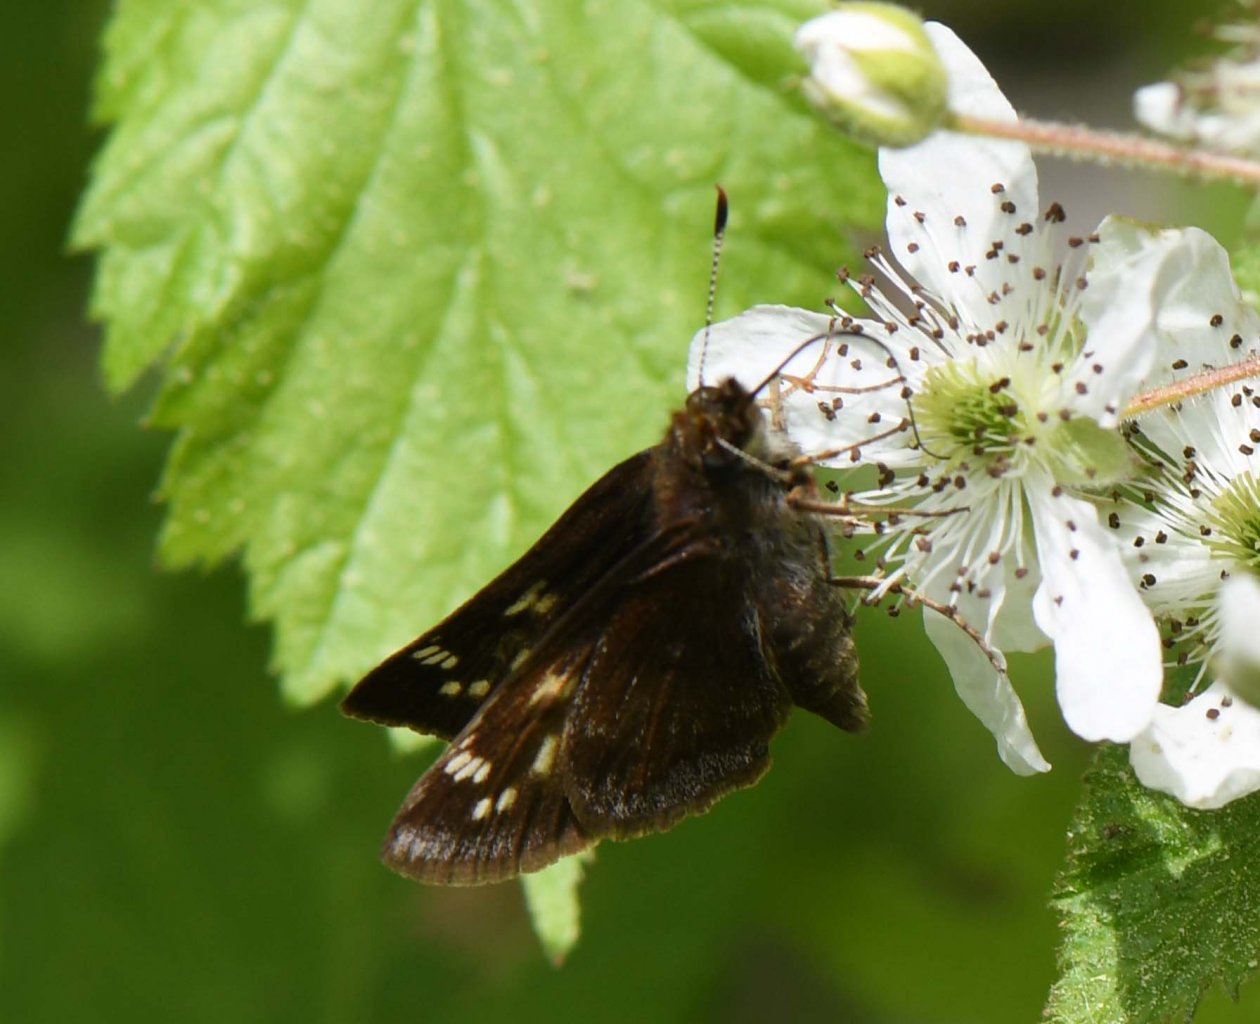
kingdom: Animalia
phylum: Arthropoda
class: Insecta
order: Lepidoptera
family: Hesperiidae
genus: Lon
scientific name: Lon hobomok
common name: Hobomok Skipper
